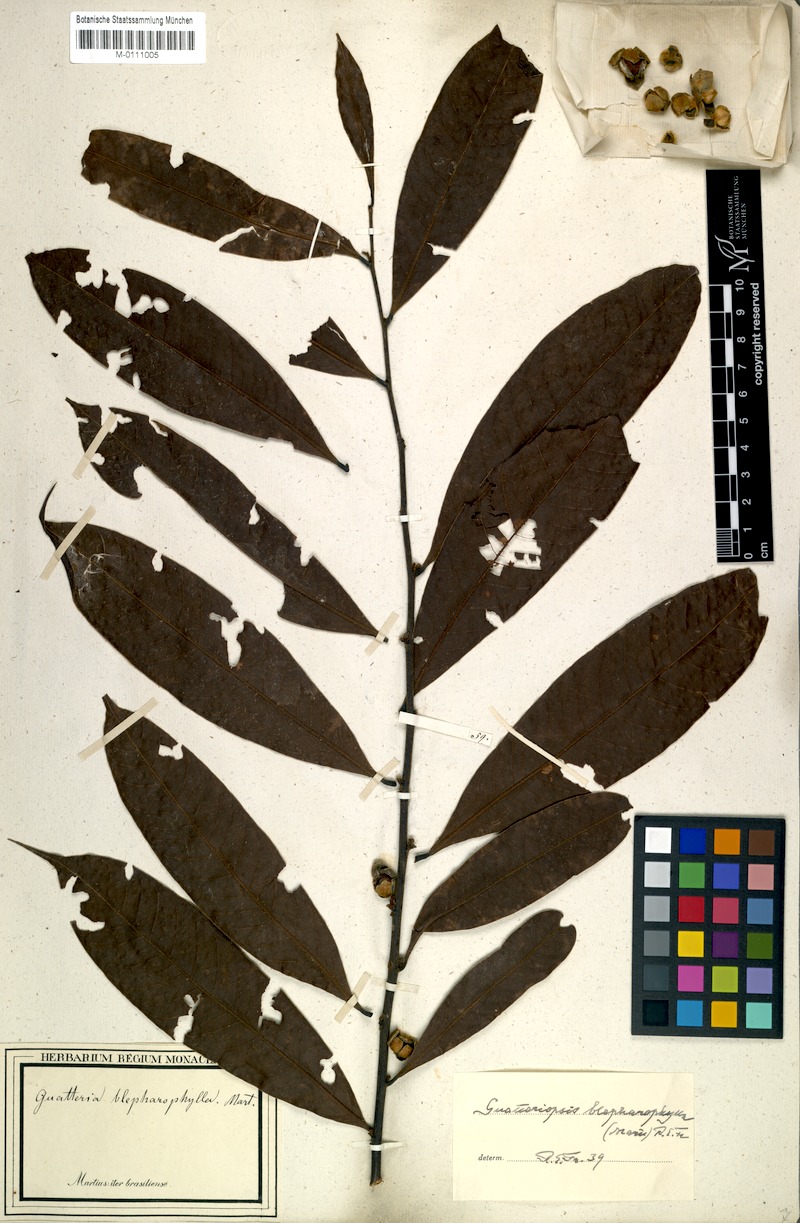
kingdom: Plantae
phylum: Tracheophyta
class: Magnoliopsida
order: Magnoliales
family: Annonaceae
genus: Guatteria
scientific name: Guatteria blepharophylla
